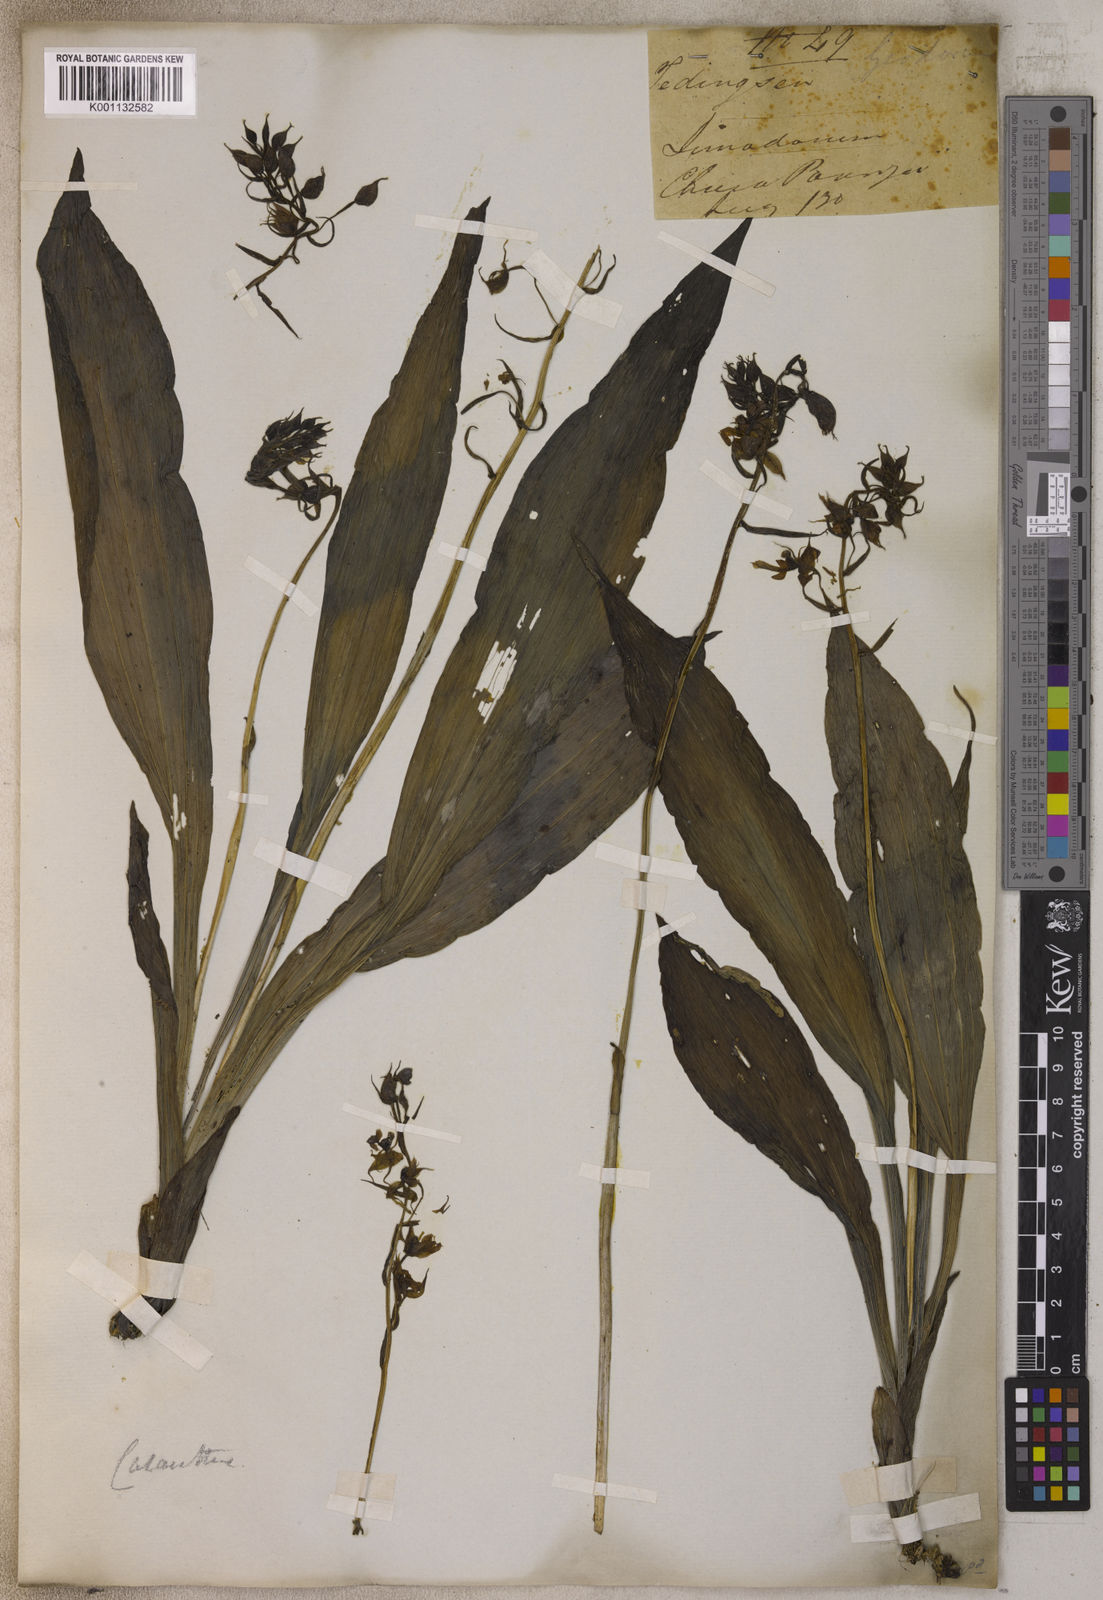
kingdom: Plantae
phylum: Tracheophyta
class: Liliopsida
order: Asparagales
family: Orchidaceae
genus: Calanthe
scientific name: Calanthe
